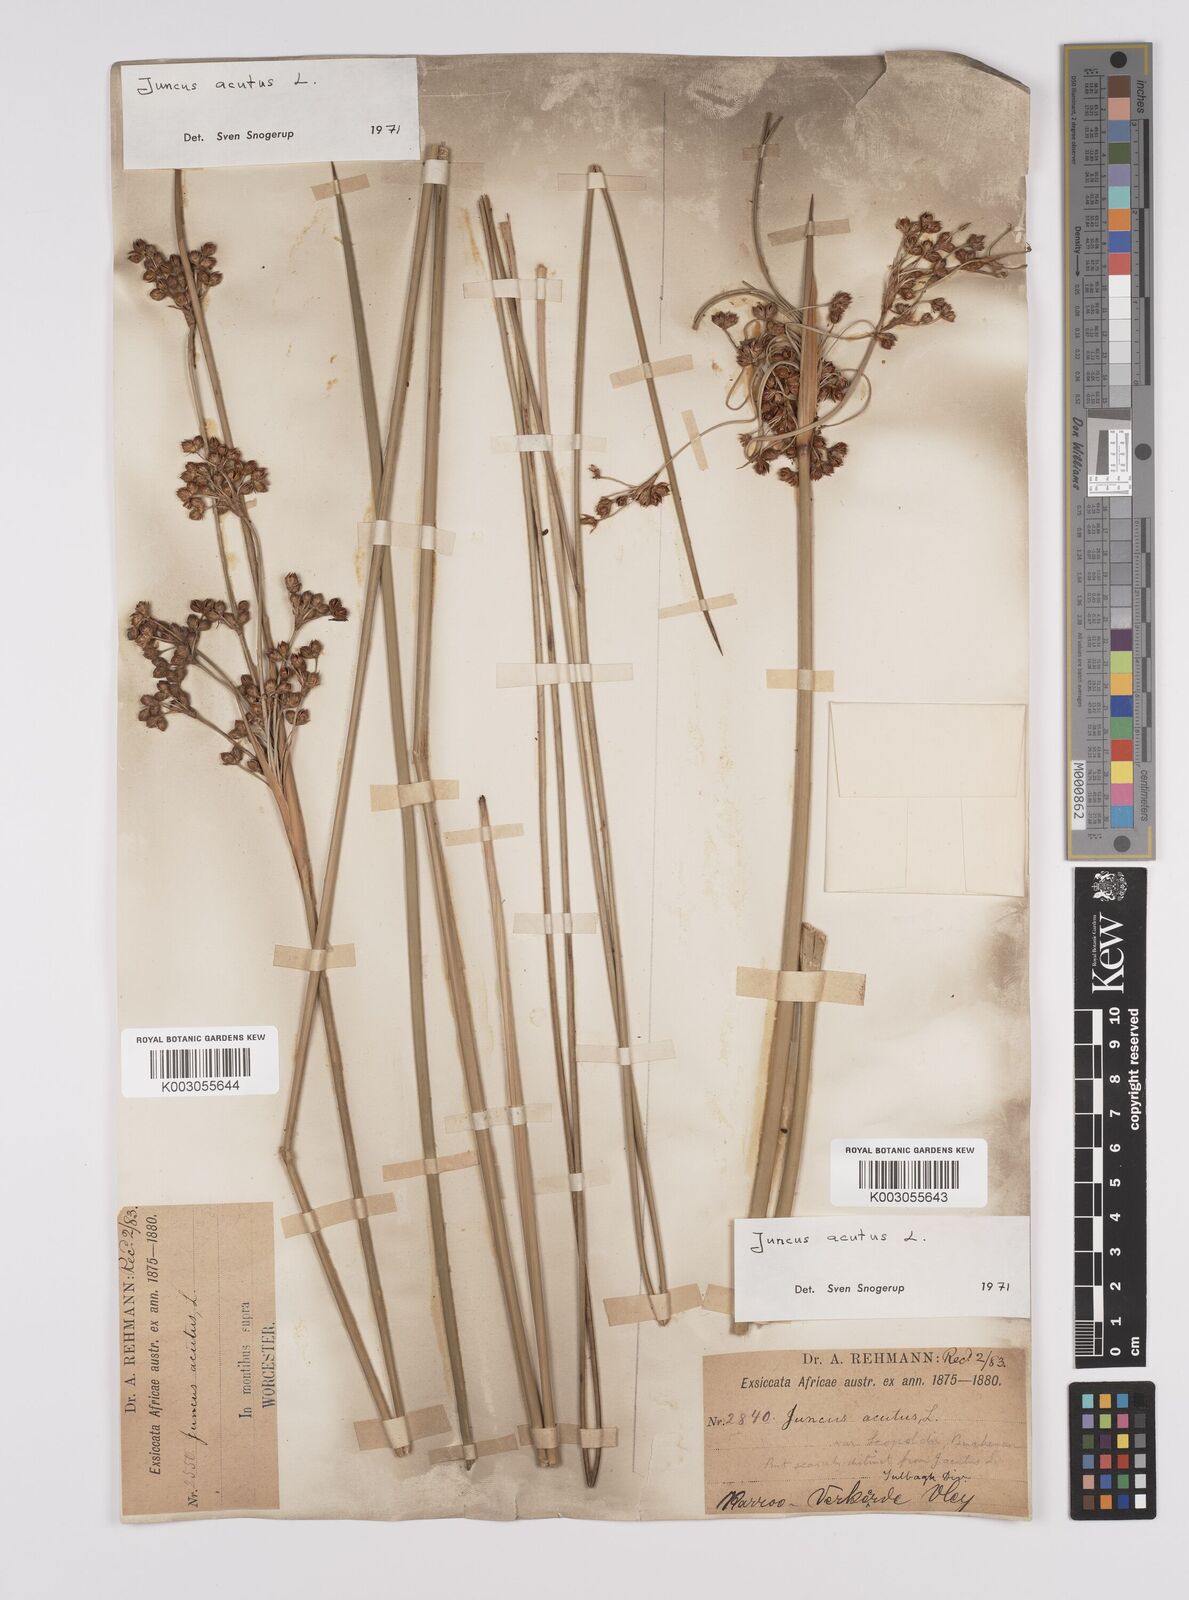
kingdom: Plantae
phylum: Tracheophyta
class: Liliopsida
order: Poales
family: Juncaceae
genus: Juncus
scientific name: Juncus acutus
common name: Sharp rush
